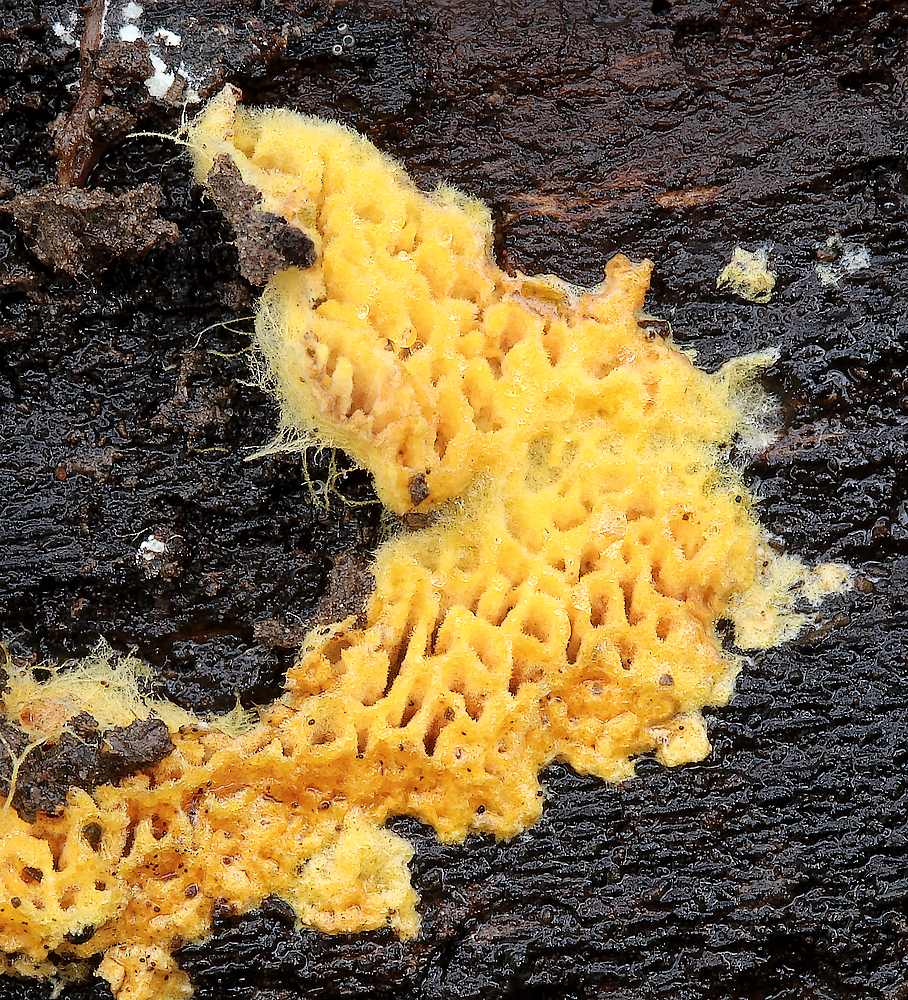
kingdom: Fungi
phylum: Basidiomycota
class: Agaricomycetes
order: Agaricales
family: Stephanosporaceae
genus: Lindtneria
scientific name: Lindtneria trachyspora
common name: labyrint-citrushinde
